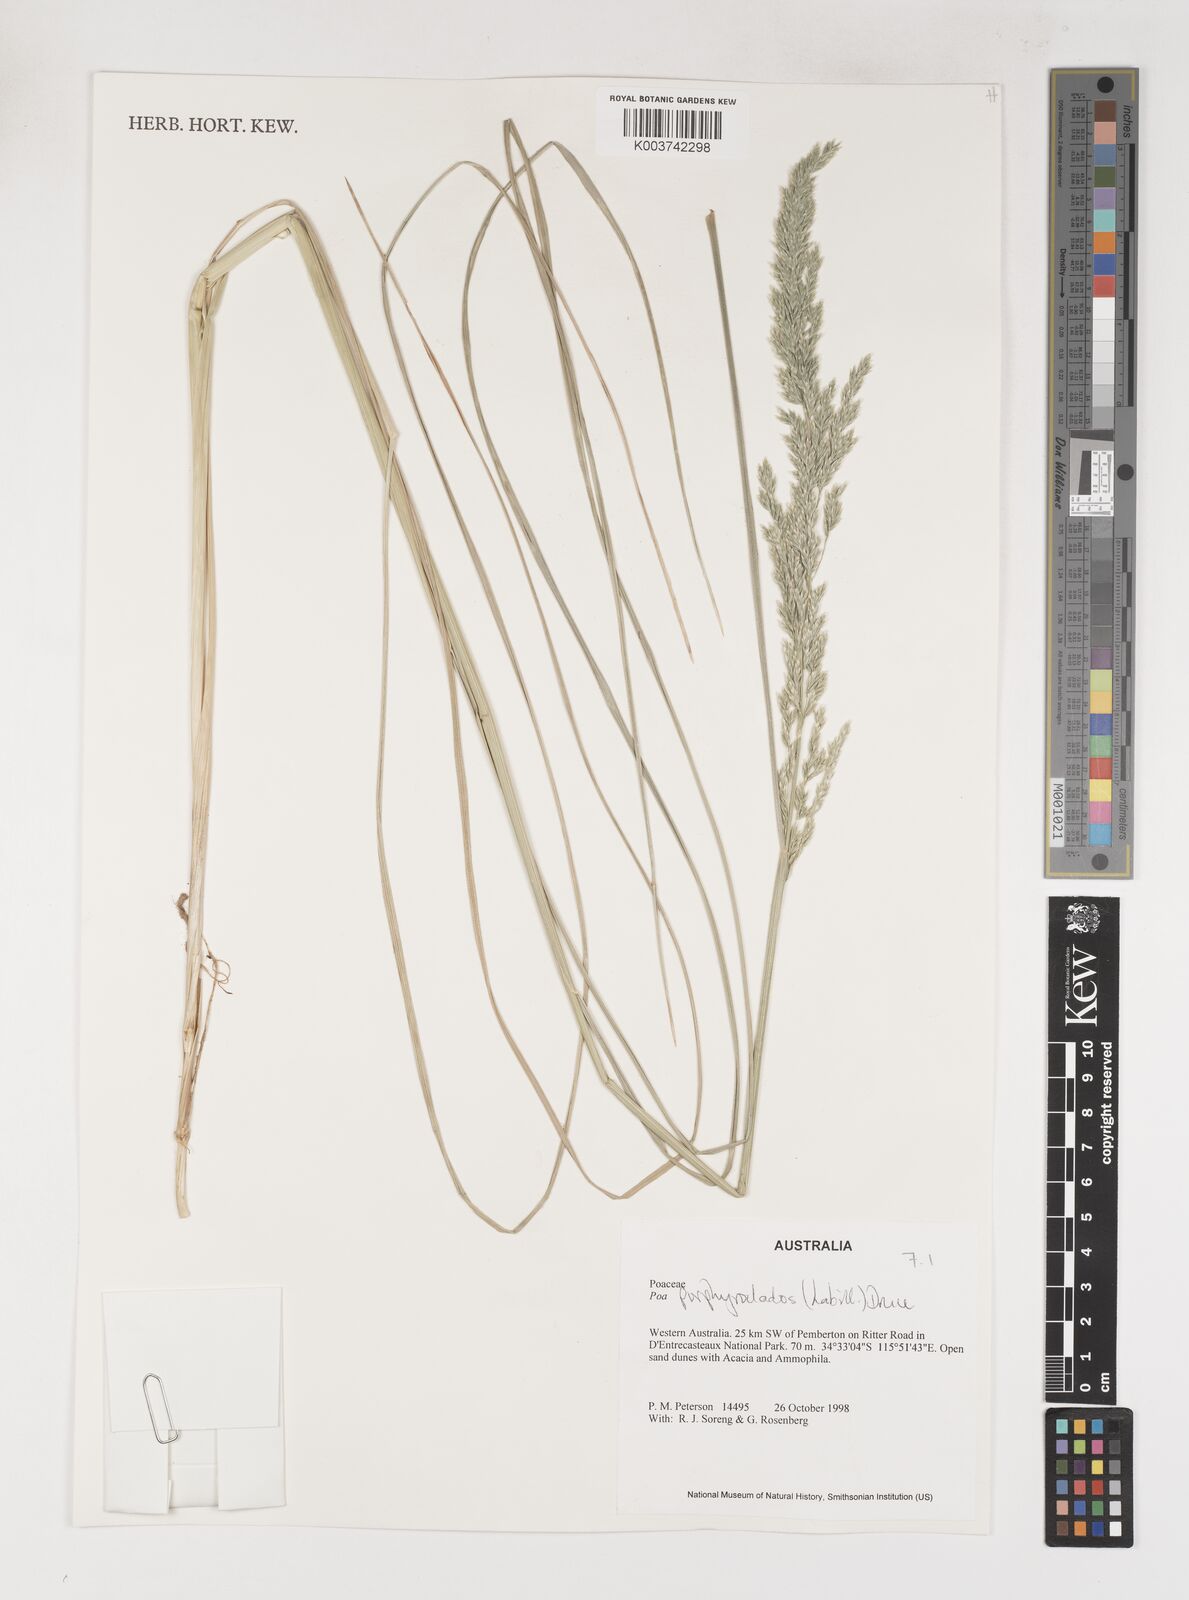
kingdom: Plantae
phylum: Tracheophyta
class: Liliopsida
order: Poales
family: Poaceae
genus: Poa
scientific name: Poa porphyroclados
